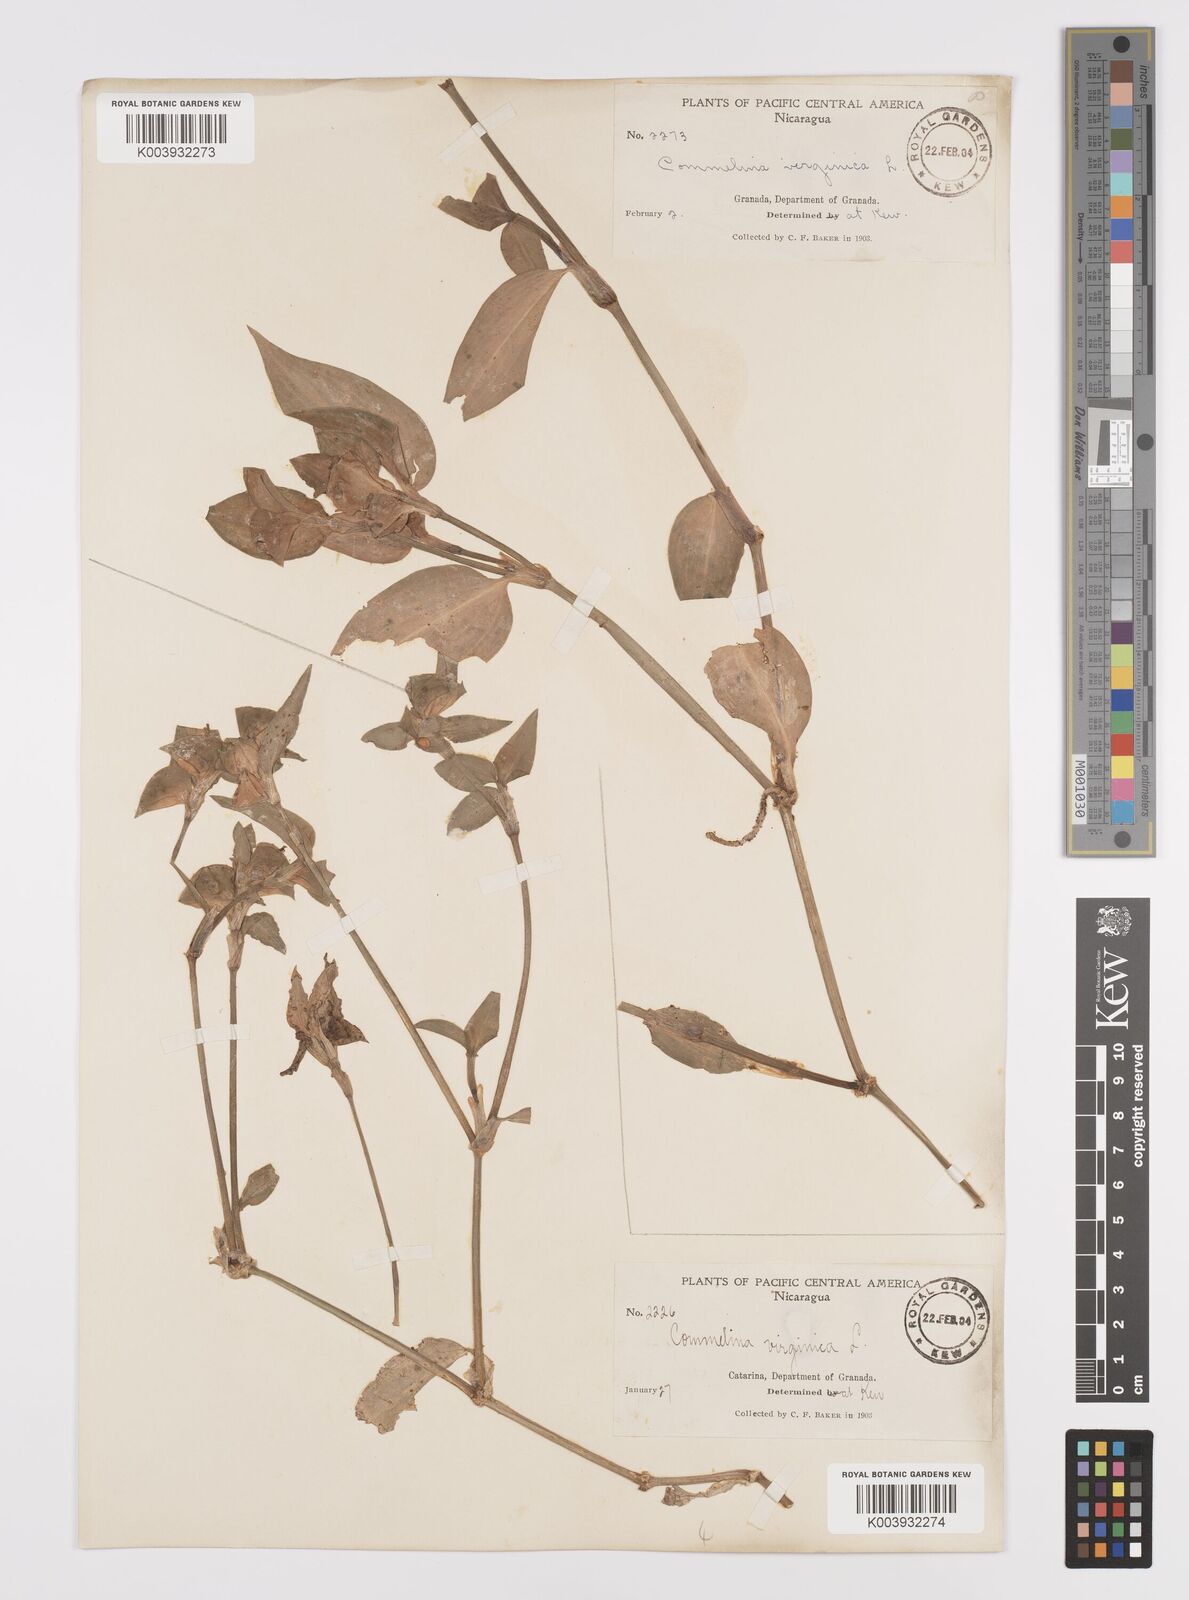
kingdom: Plantae
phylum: Tracheophyta
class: Liliopsida
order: Commelinales
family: Commelinaceae
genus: Commelina
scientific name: Commelina erecta
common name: Blousel blommetjie
